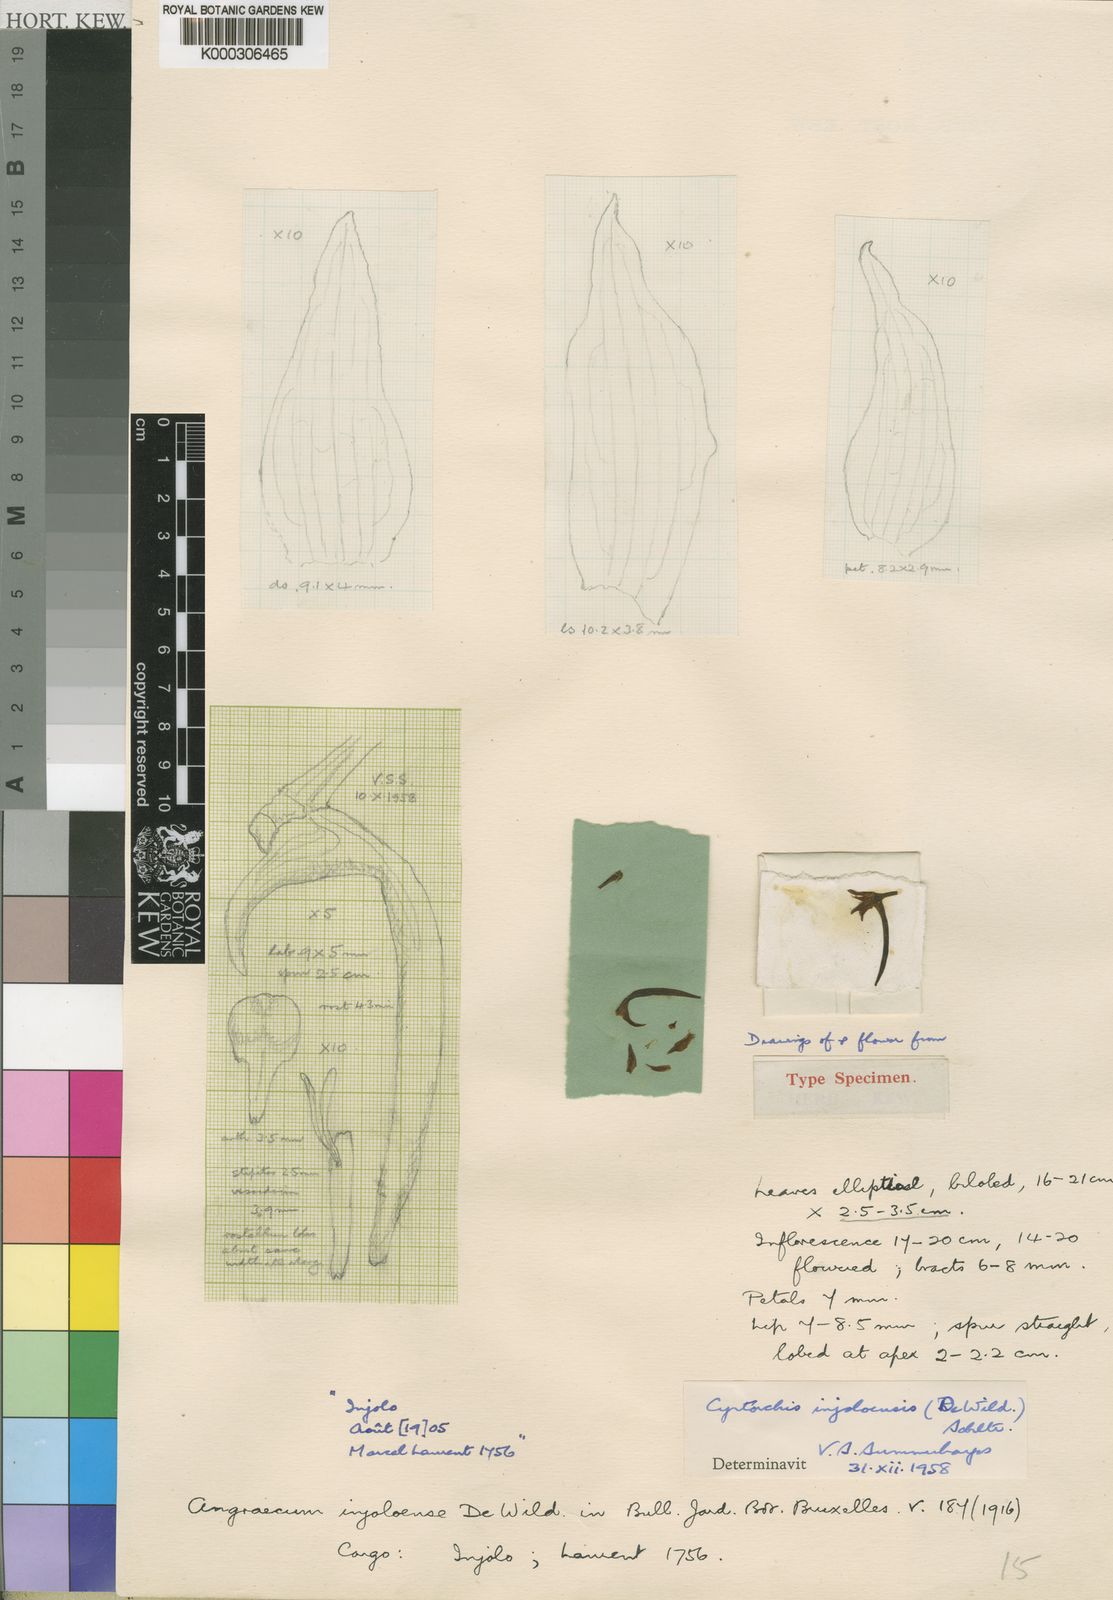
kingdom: Plantae
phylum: Tracheophyta
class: Liliopsida
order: Asparagales
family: Orchidaceae
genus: Cyrtorchis
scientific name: Cyrtorchis injoloensis
